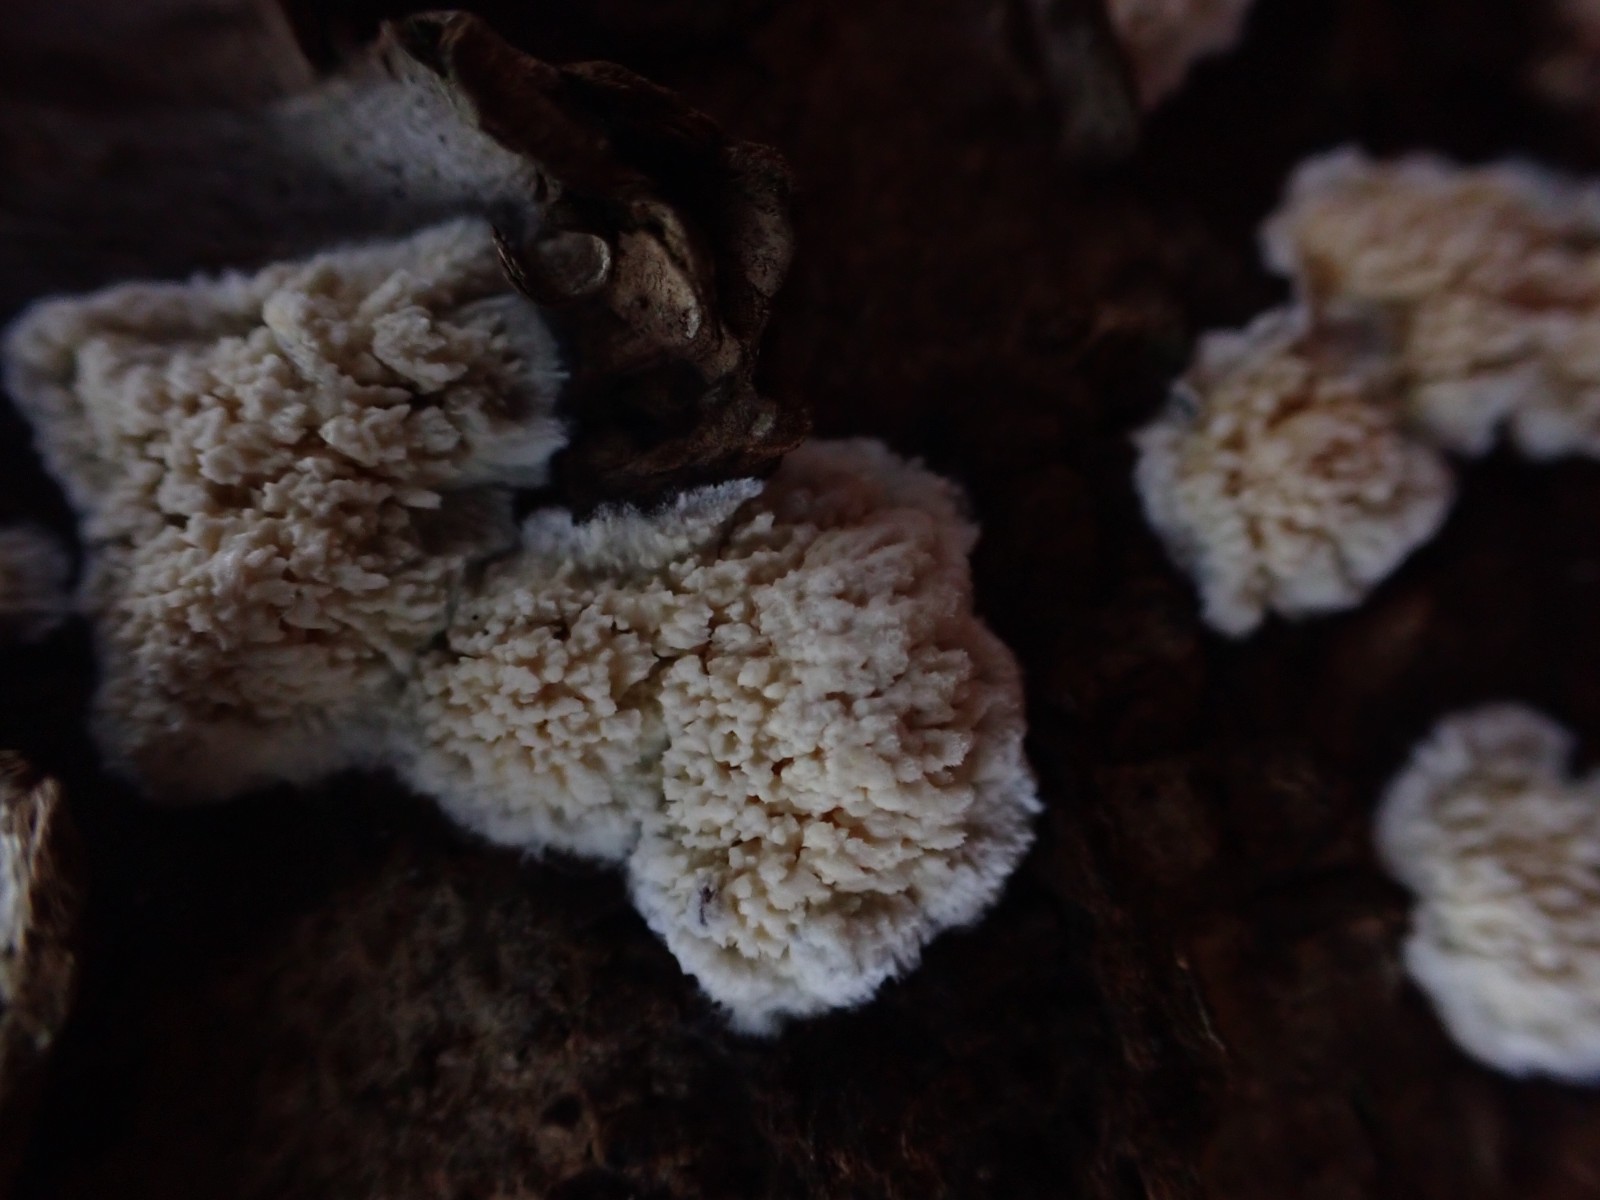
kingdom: Fungi
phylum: Basidiomycota
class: Agaricomycetes
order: Hymenochaetales
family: Schizoporaceae
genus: Xylodon
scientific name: Xylodon radula
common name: grovtandet kalkskind
